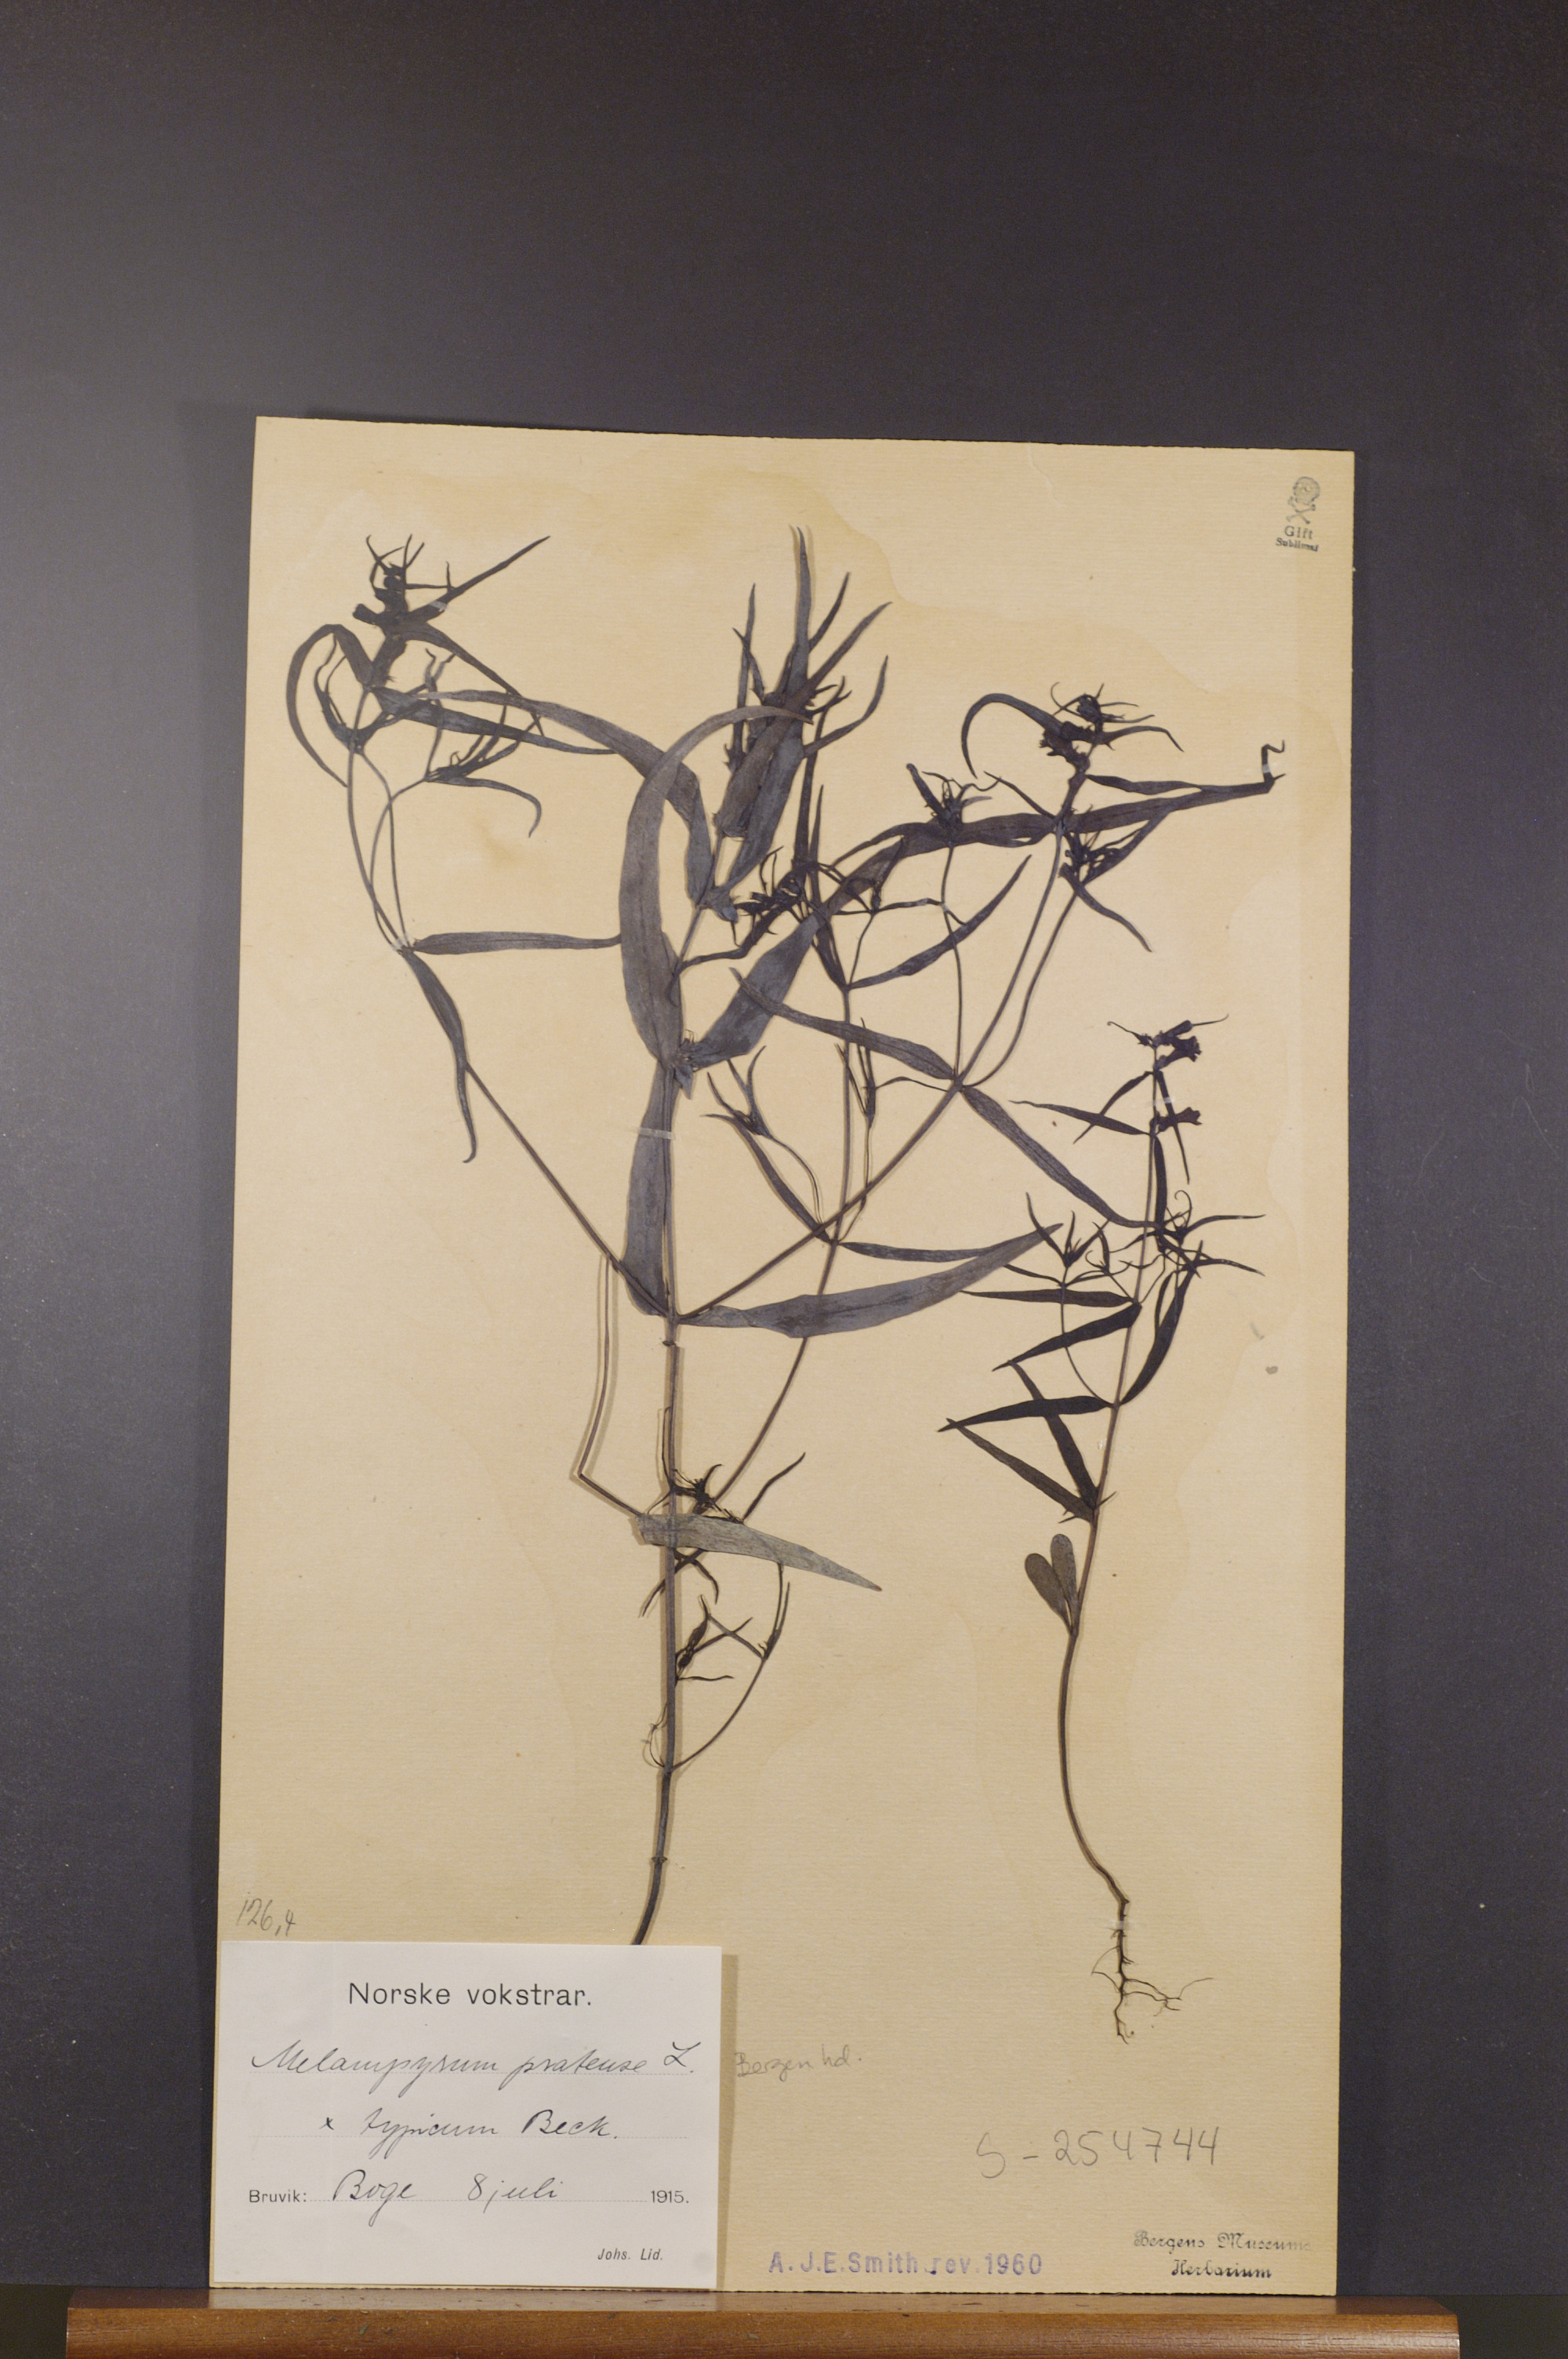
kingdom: Plantae
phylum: Tracheophyta
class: Magnoliopsida
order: Lamiales
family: Orobanchaceae
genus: Melampyrum
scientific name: Melampyrum pratense
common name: Common cow-wheat
